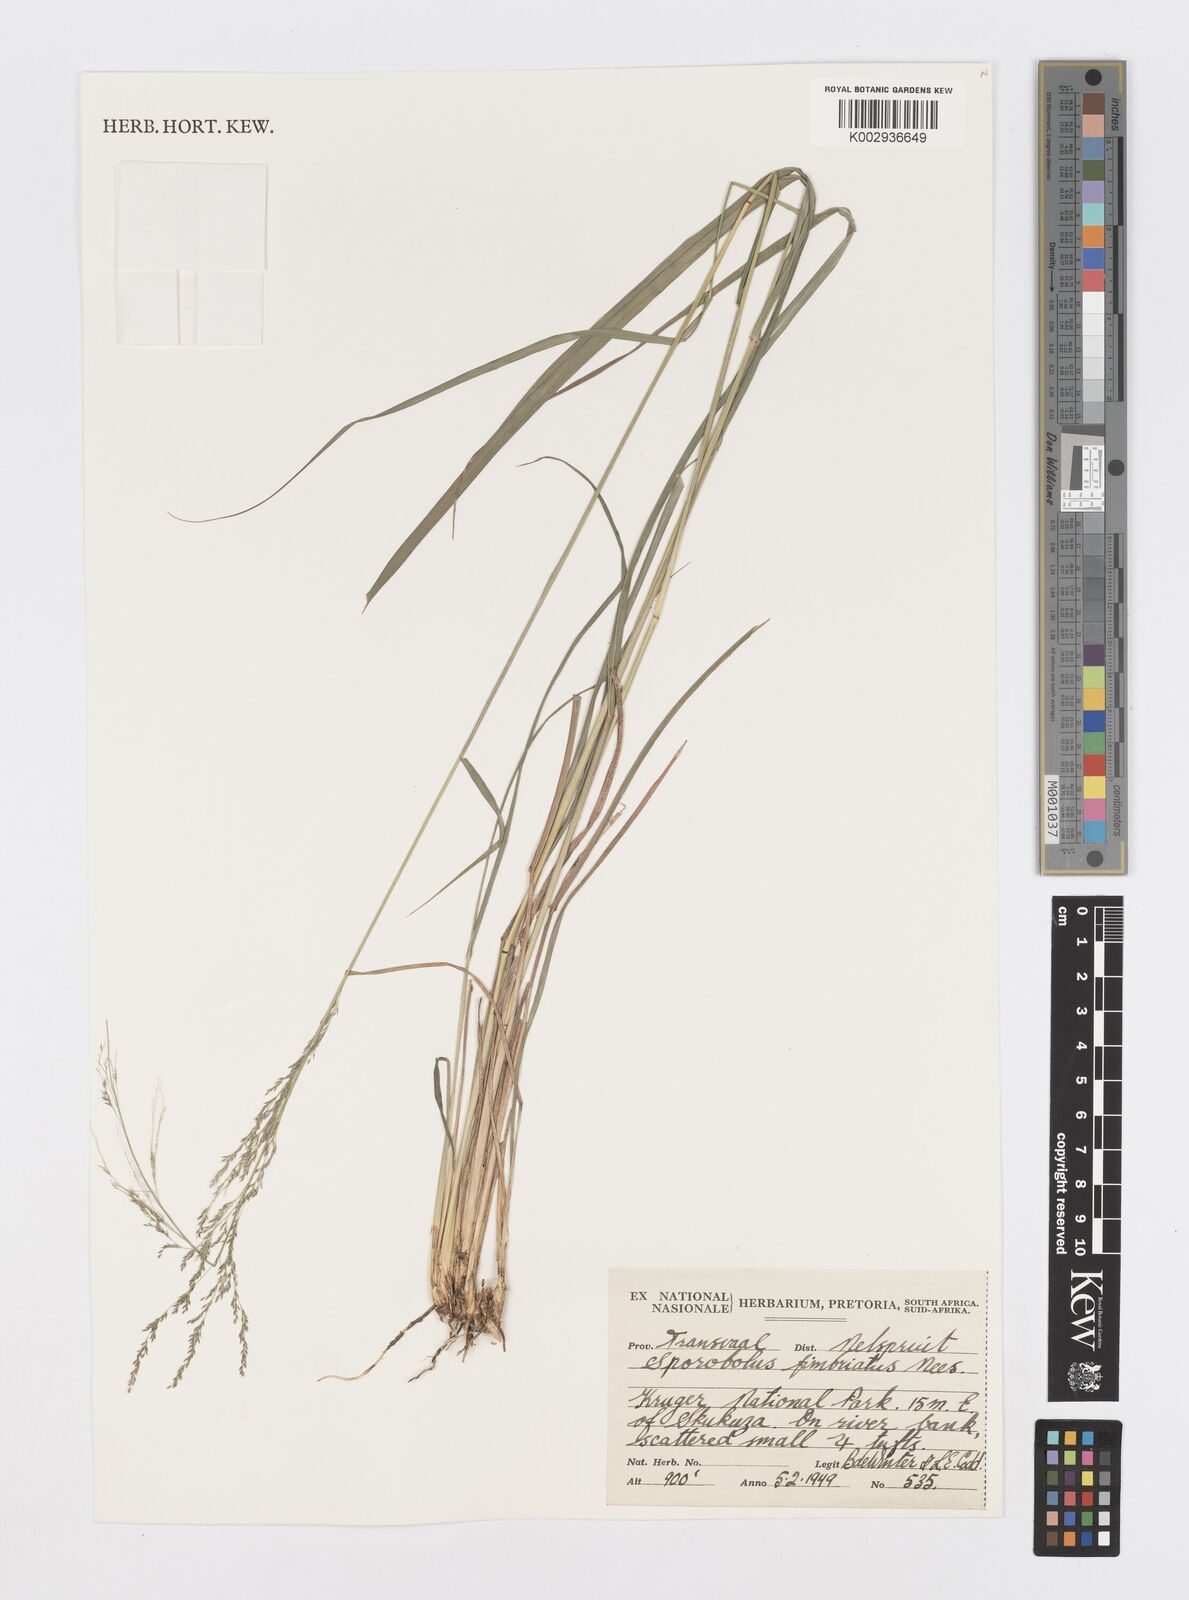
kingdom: Plantae
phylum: Tracheophyta
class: Liliopsida
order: Poales
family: Poaceae
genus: Sporobolus
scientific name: Sporobolus fimbriatus
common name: Fringed dropseed
